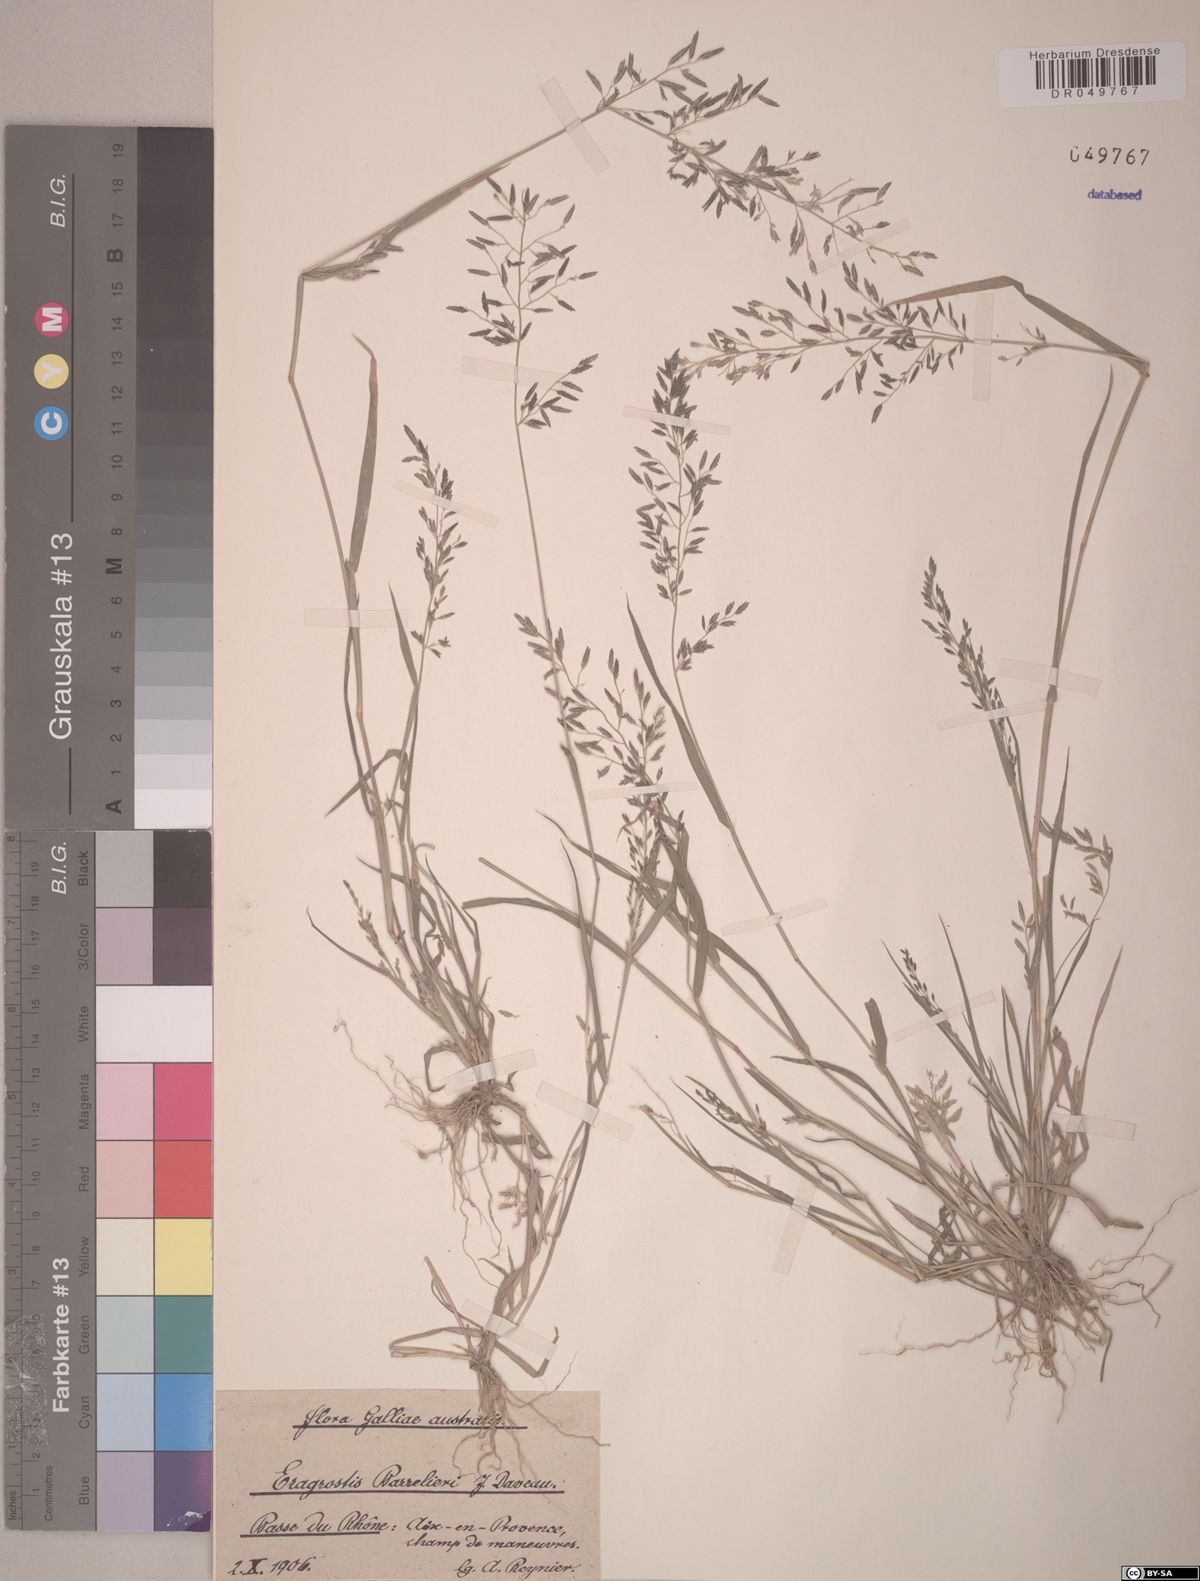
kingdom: Plantae
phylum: Tracheophyta
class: Liliopsida
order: Poales
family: Poaceae
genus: Eragrostis
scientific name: Eragrostis barrelieri
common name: Mediterranean lovegrass
